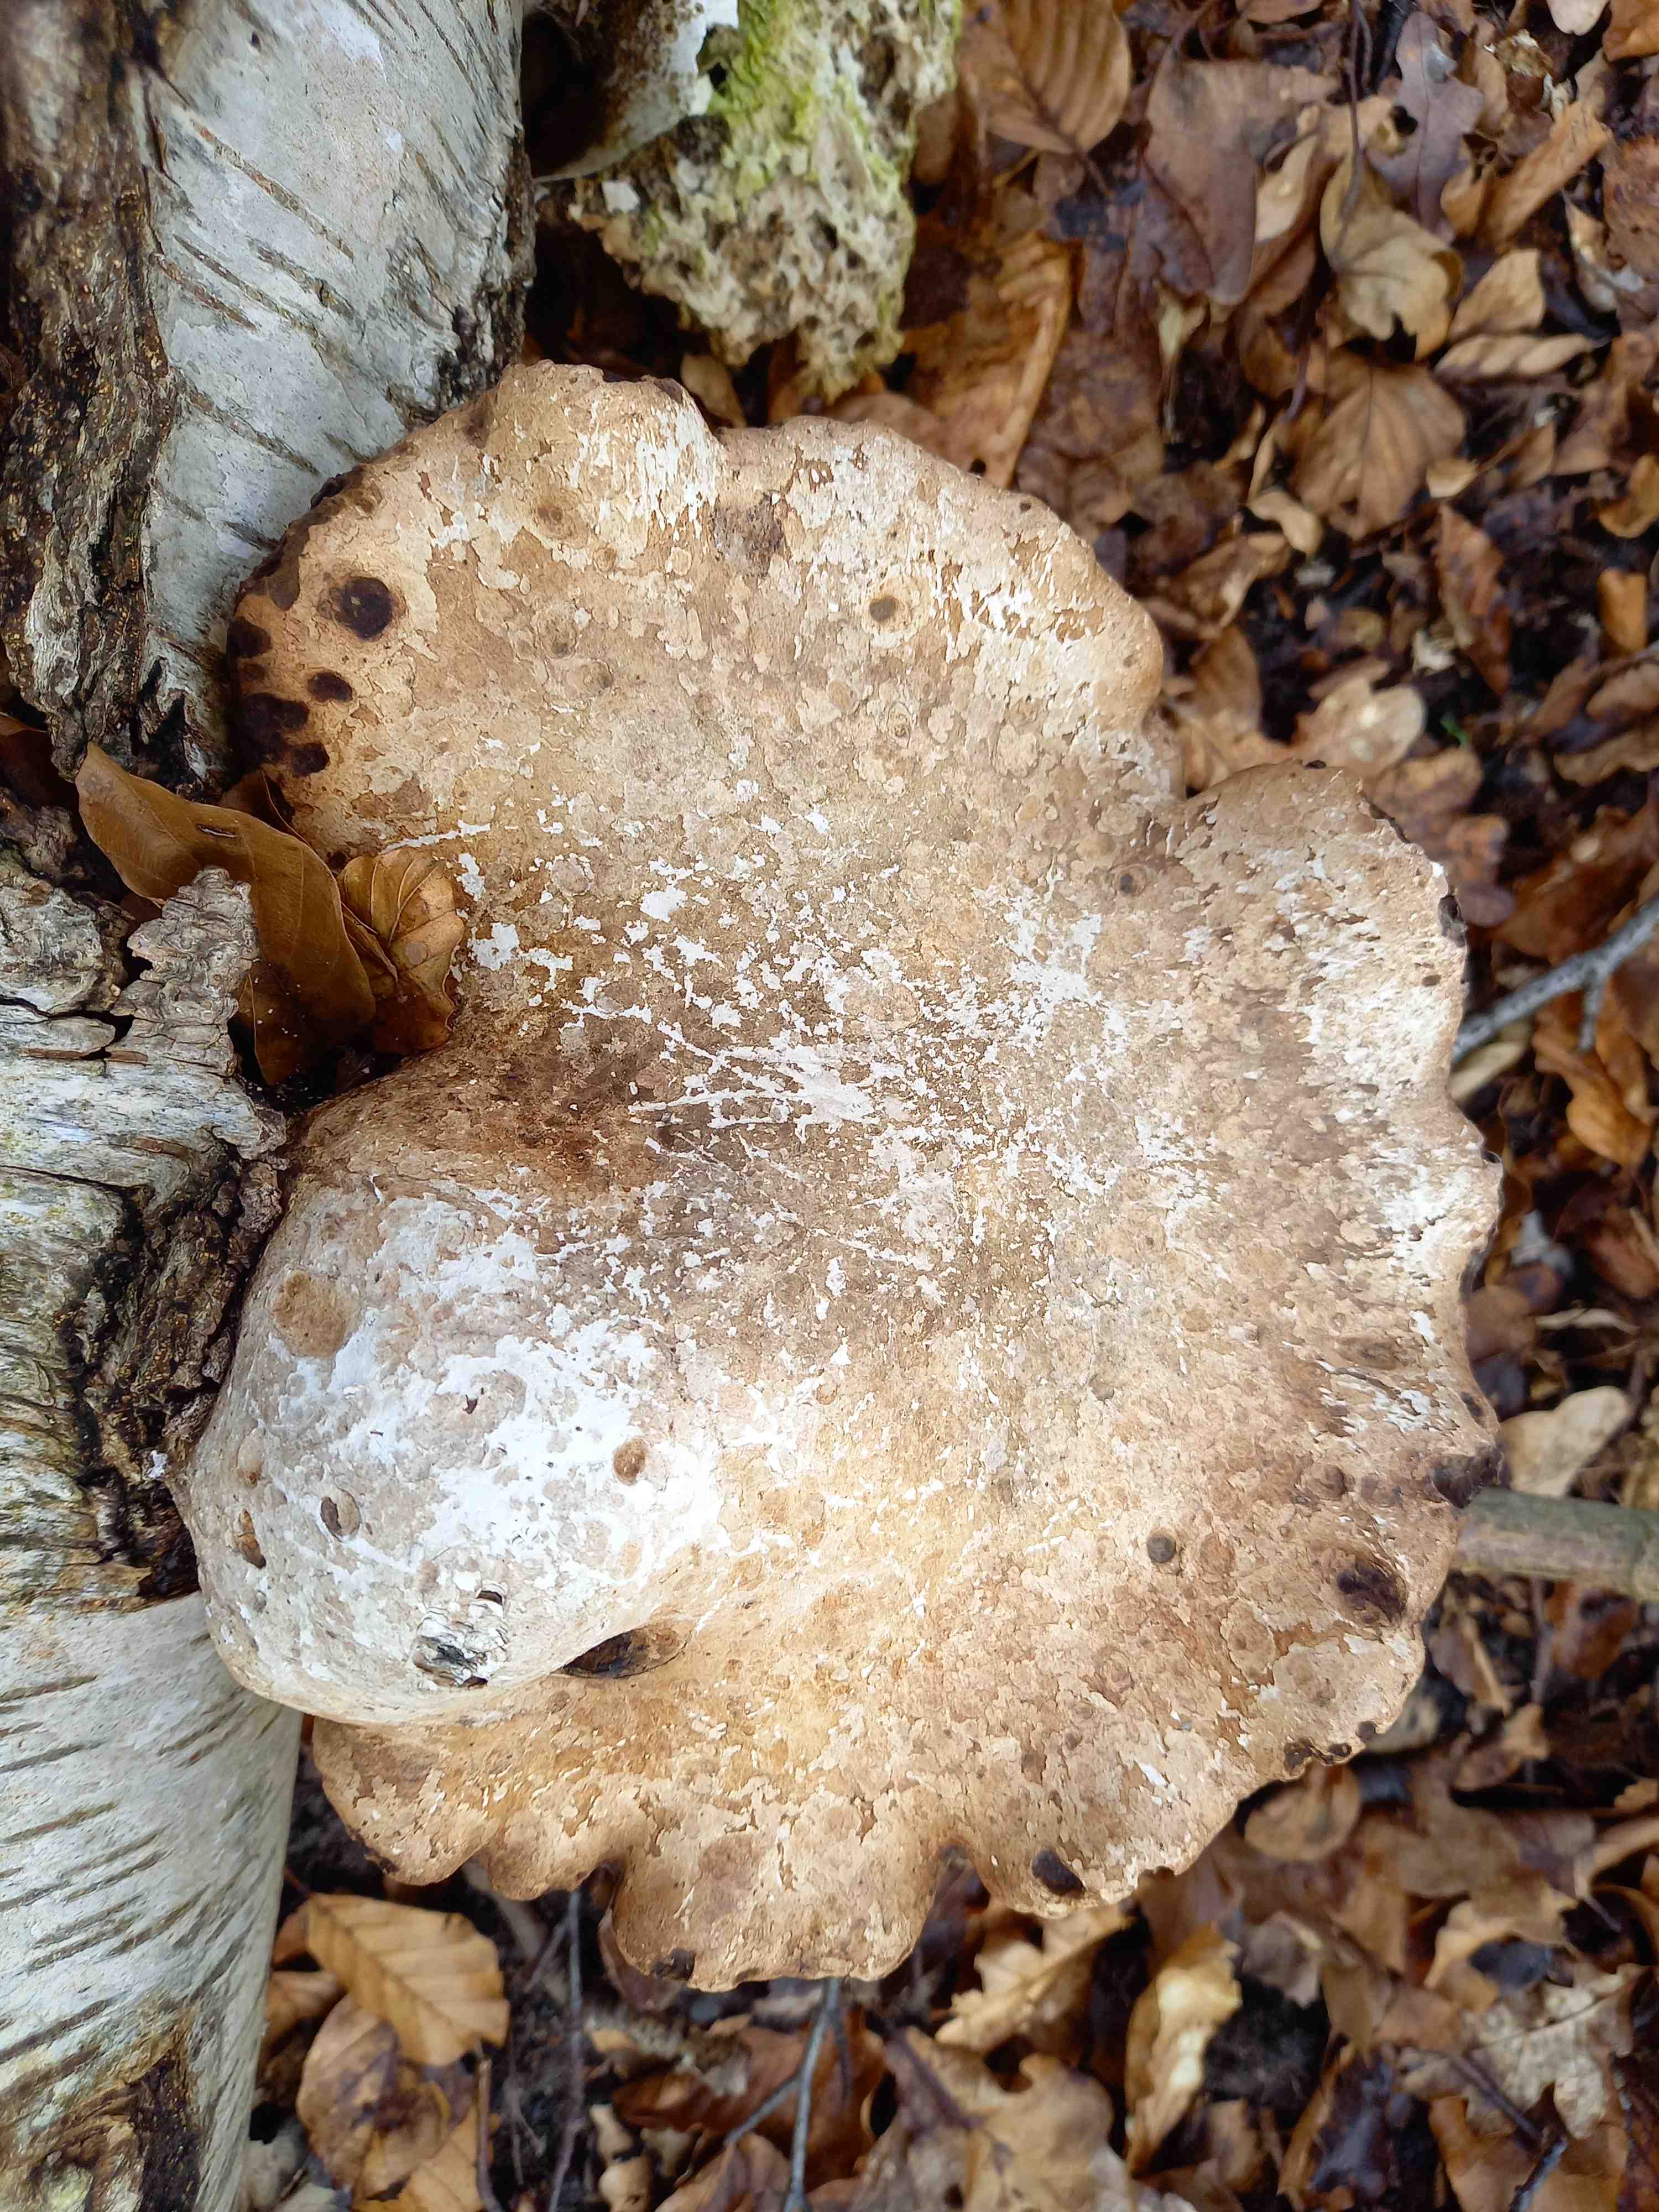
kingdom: Fungi
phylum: Basidiomycota
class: Agaricomycetes
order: Polyporales
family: Fomitopsidaceae
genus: Fomitopsis
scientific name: Fomitopsis betulina
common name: birkeporesvamp
